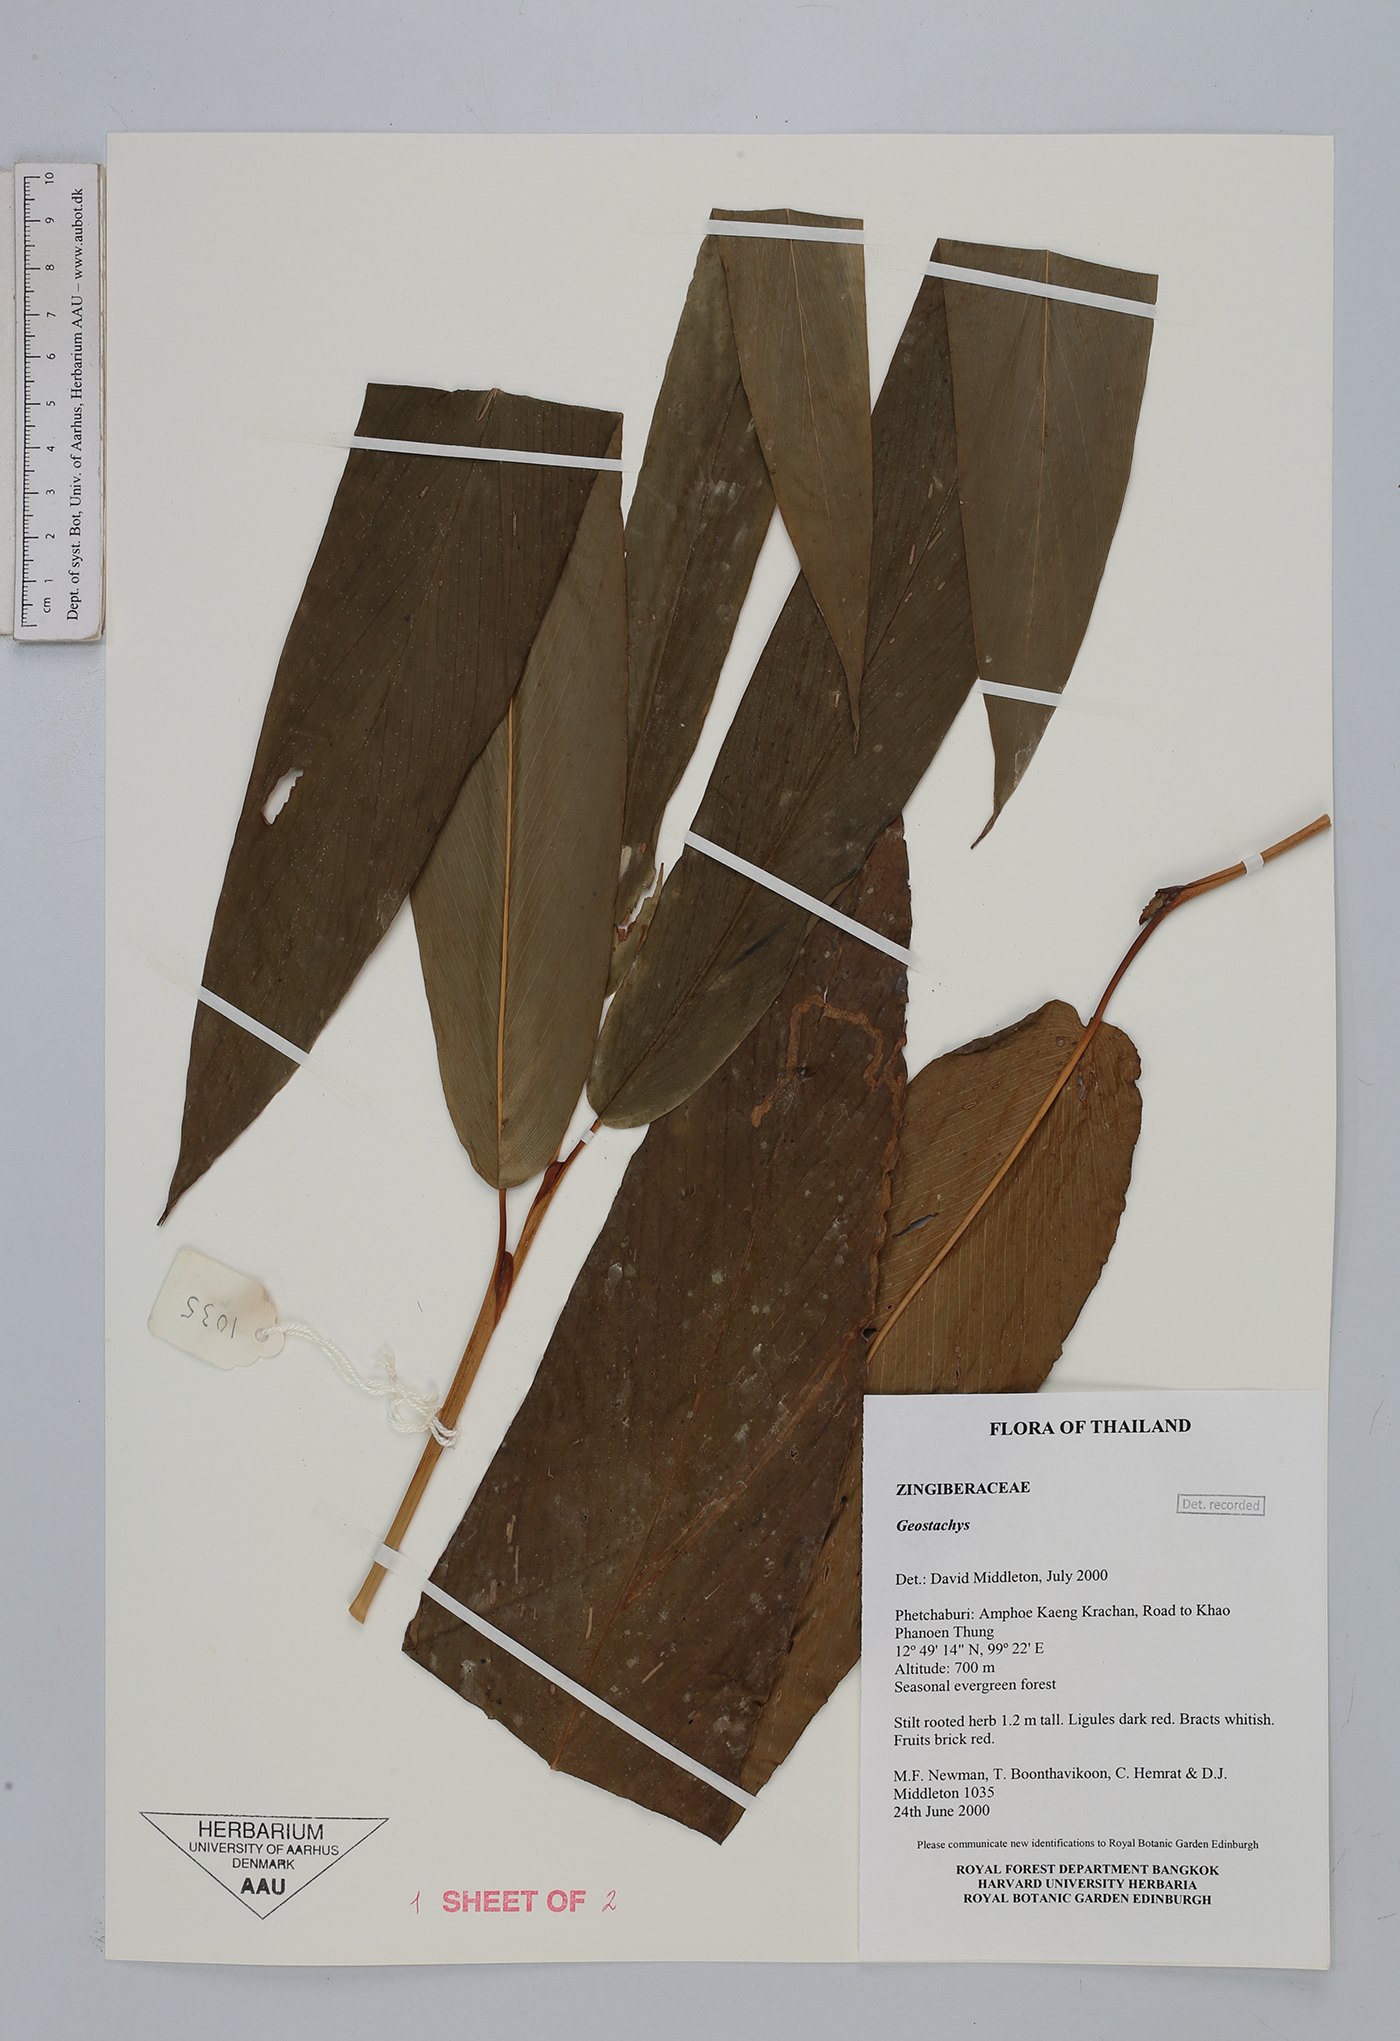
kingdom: Plantae
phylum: Tracheophyta
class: Liliopsida
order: Zingiberales
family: Zingiberaceae
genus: Geostachys
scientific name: Geostachys
